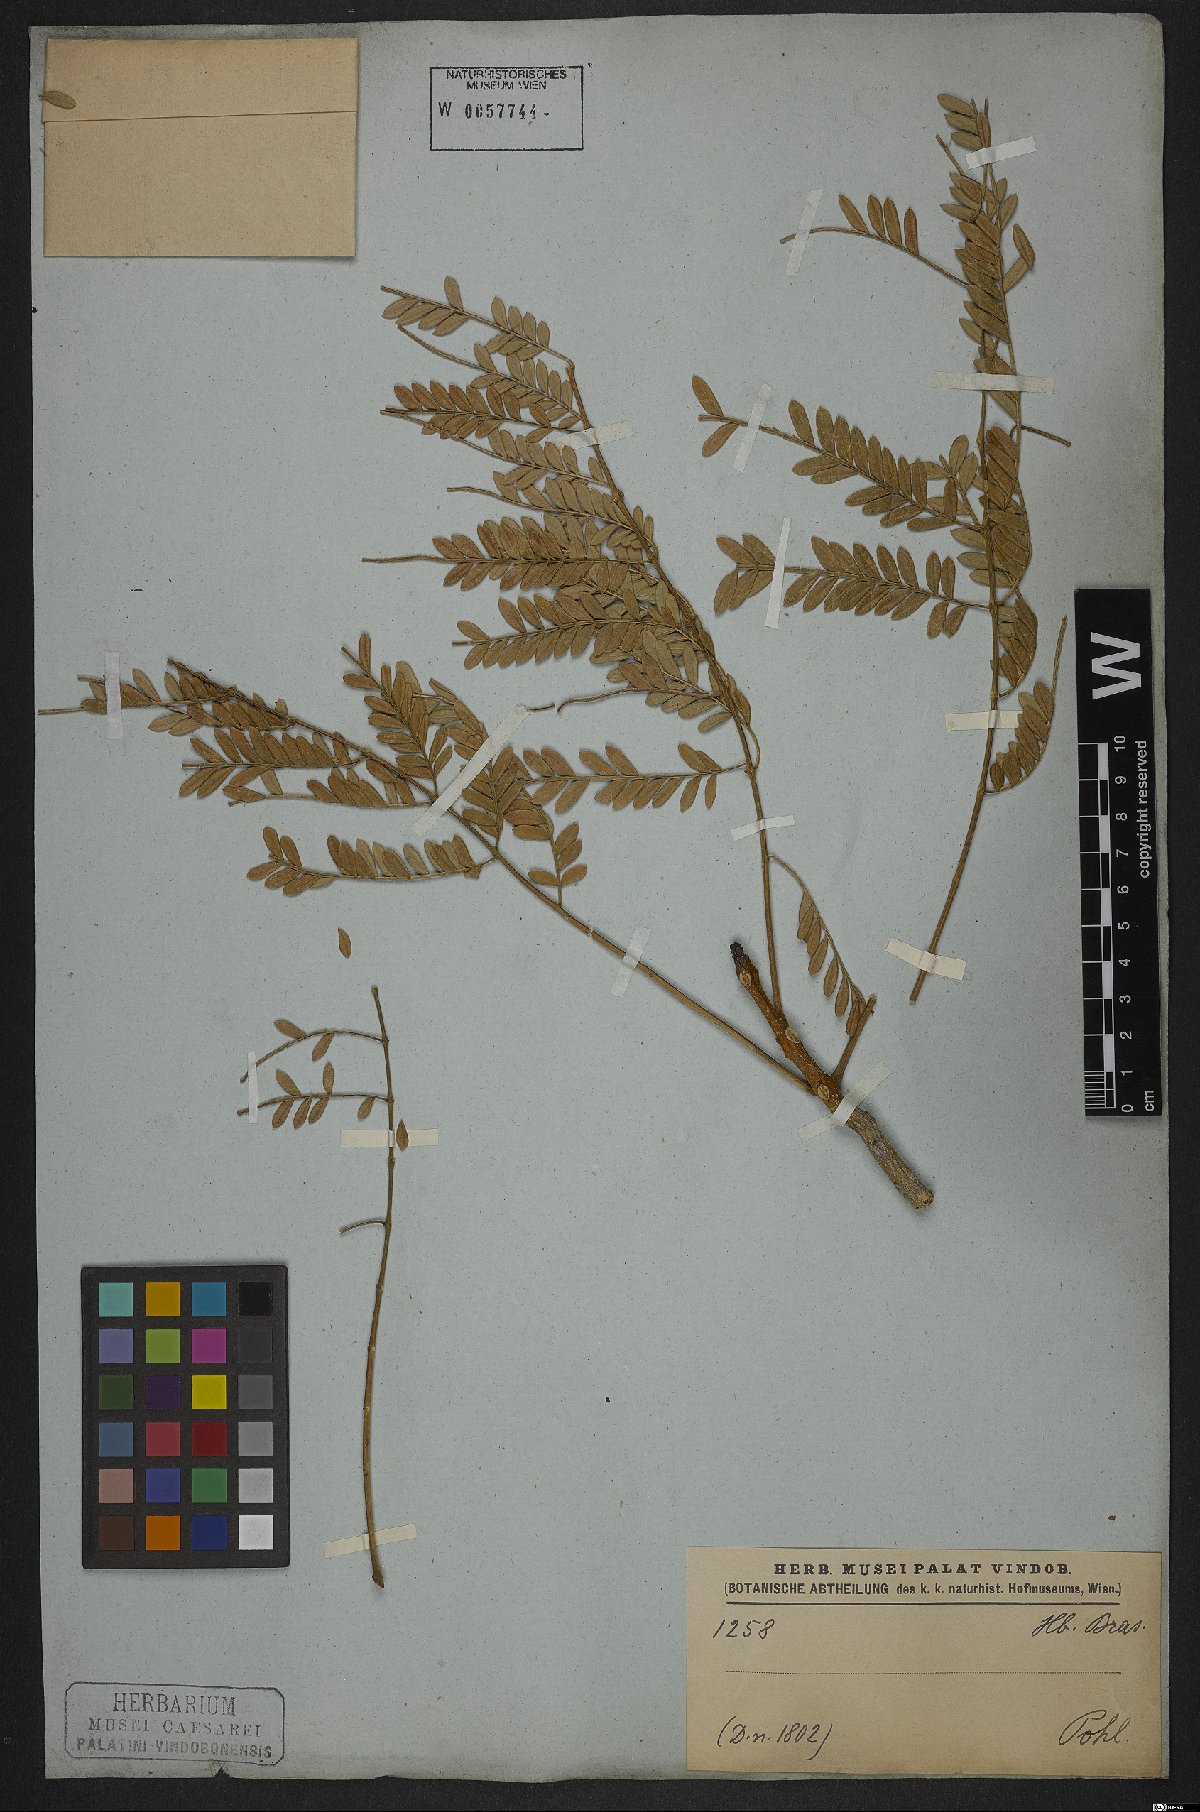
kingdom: Plantae
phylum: Tracheophyta
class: Magnoliopsida
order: Lamiales
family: Bignoniaceae
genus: Jacaranda
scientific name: Jacaranda brasiliana
